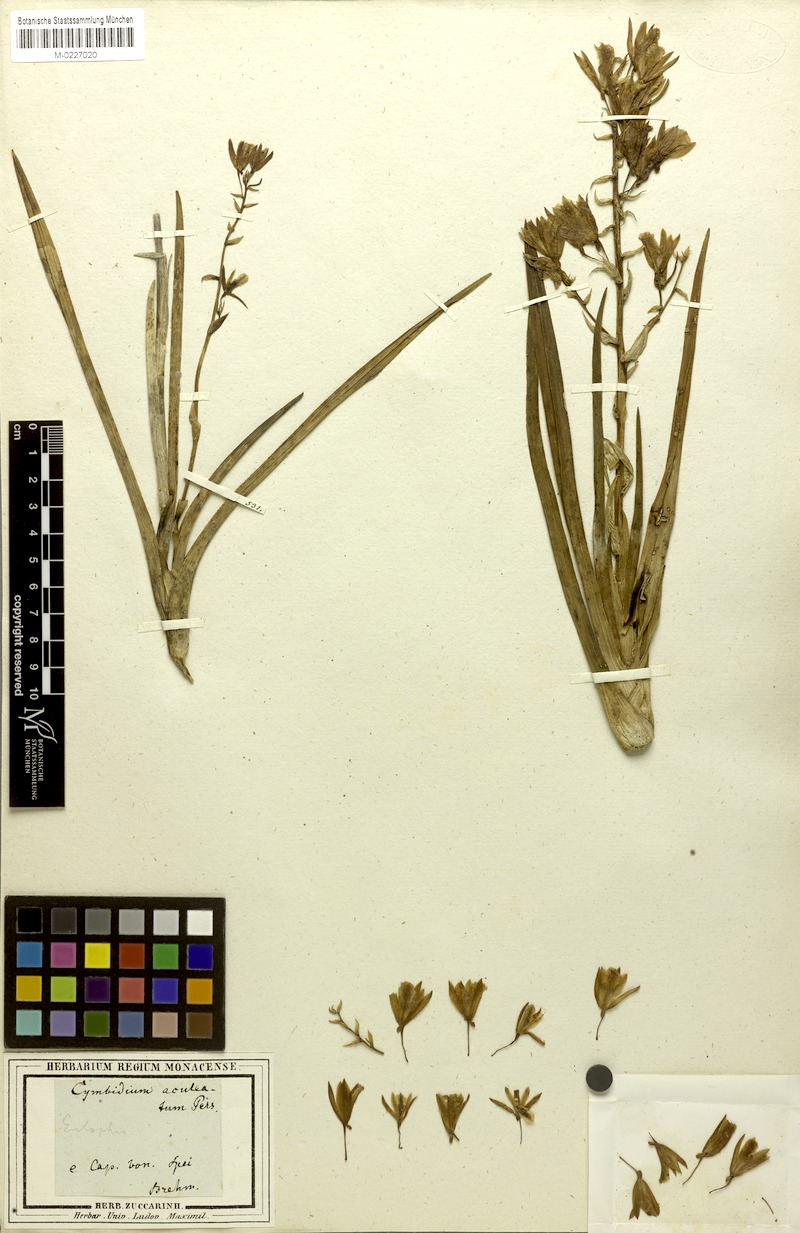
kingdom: Plantae
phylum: Tracheophyta
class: Liliopsida
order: Asparagales
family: Orchidaceae
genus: Eulophia
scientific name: Eulophia aculeata
